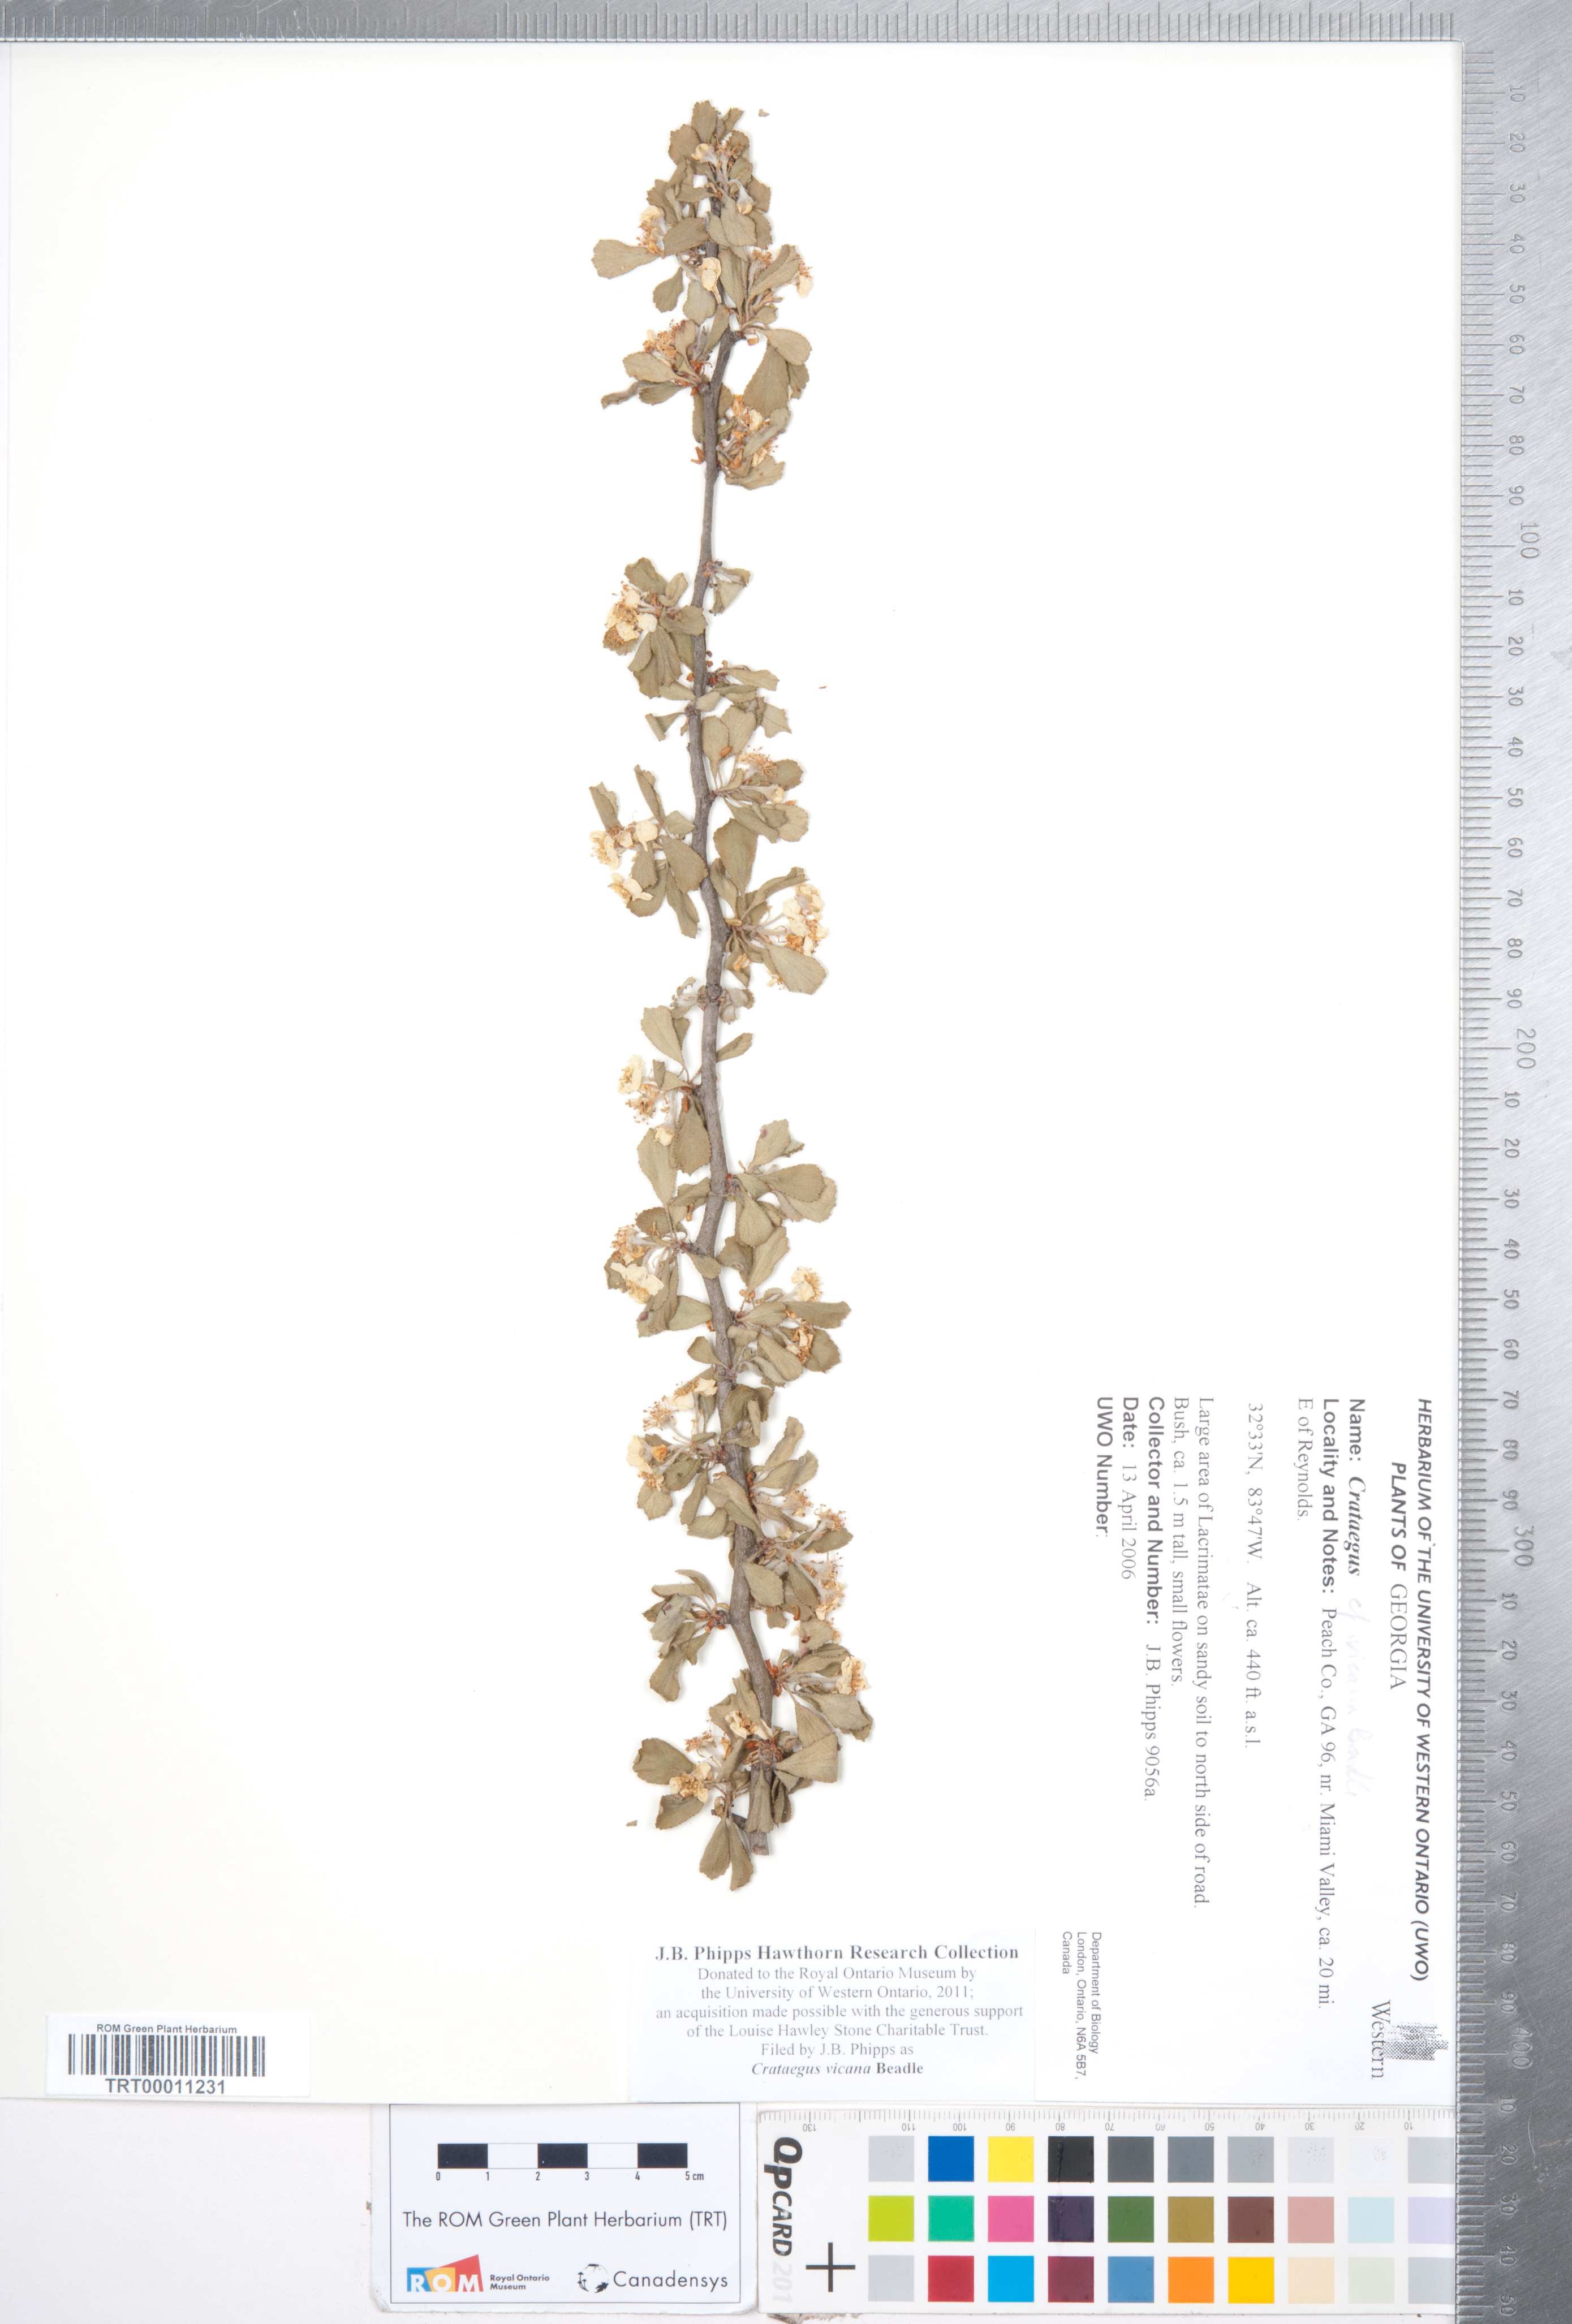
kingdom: Plantae
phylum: Tracheophyta
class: Magnoliopsida
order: Rosales
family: Rosaceae
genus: Crataegus
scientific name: Crataegus lassa
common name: Florida hawthorn
